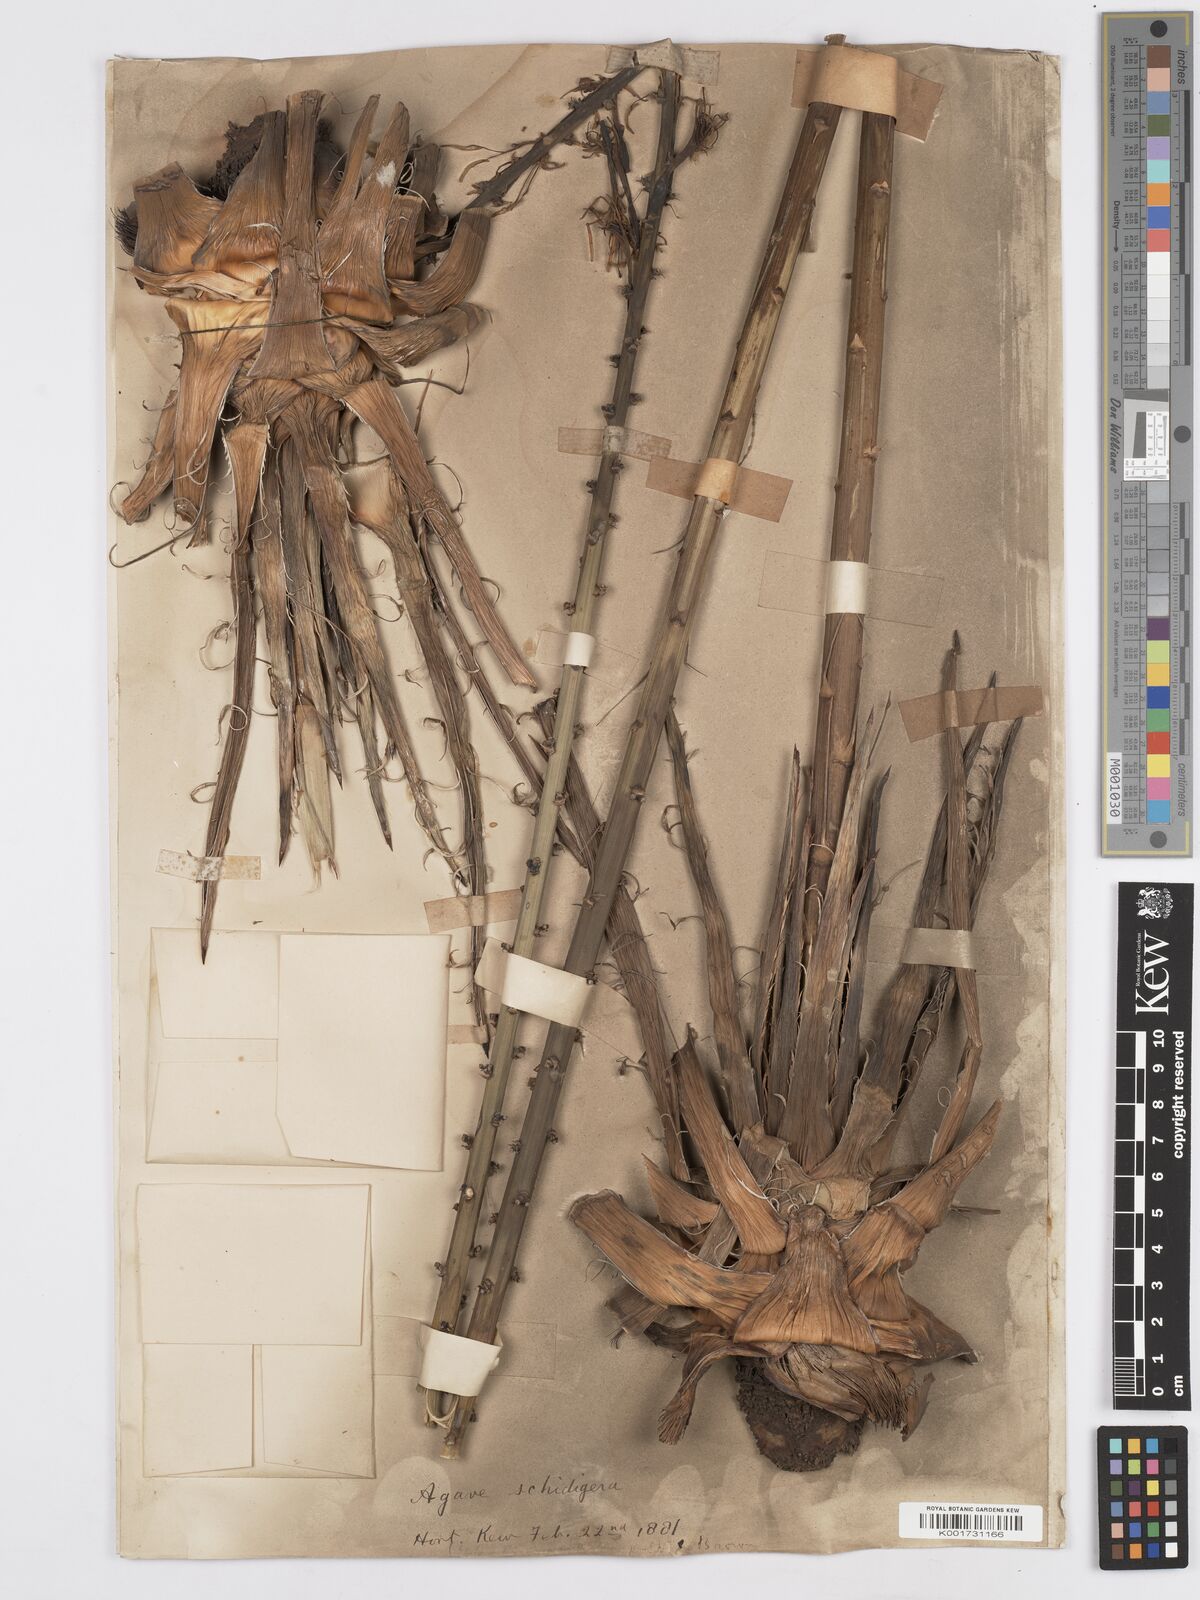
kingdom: Plantae
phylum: Tracheophyta
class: Liliopsida
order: Asparagales
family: Asparagaceae
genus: Agave
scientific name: Agave schidigera
